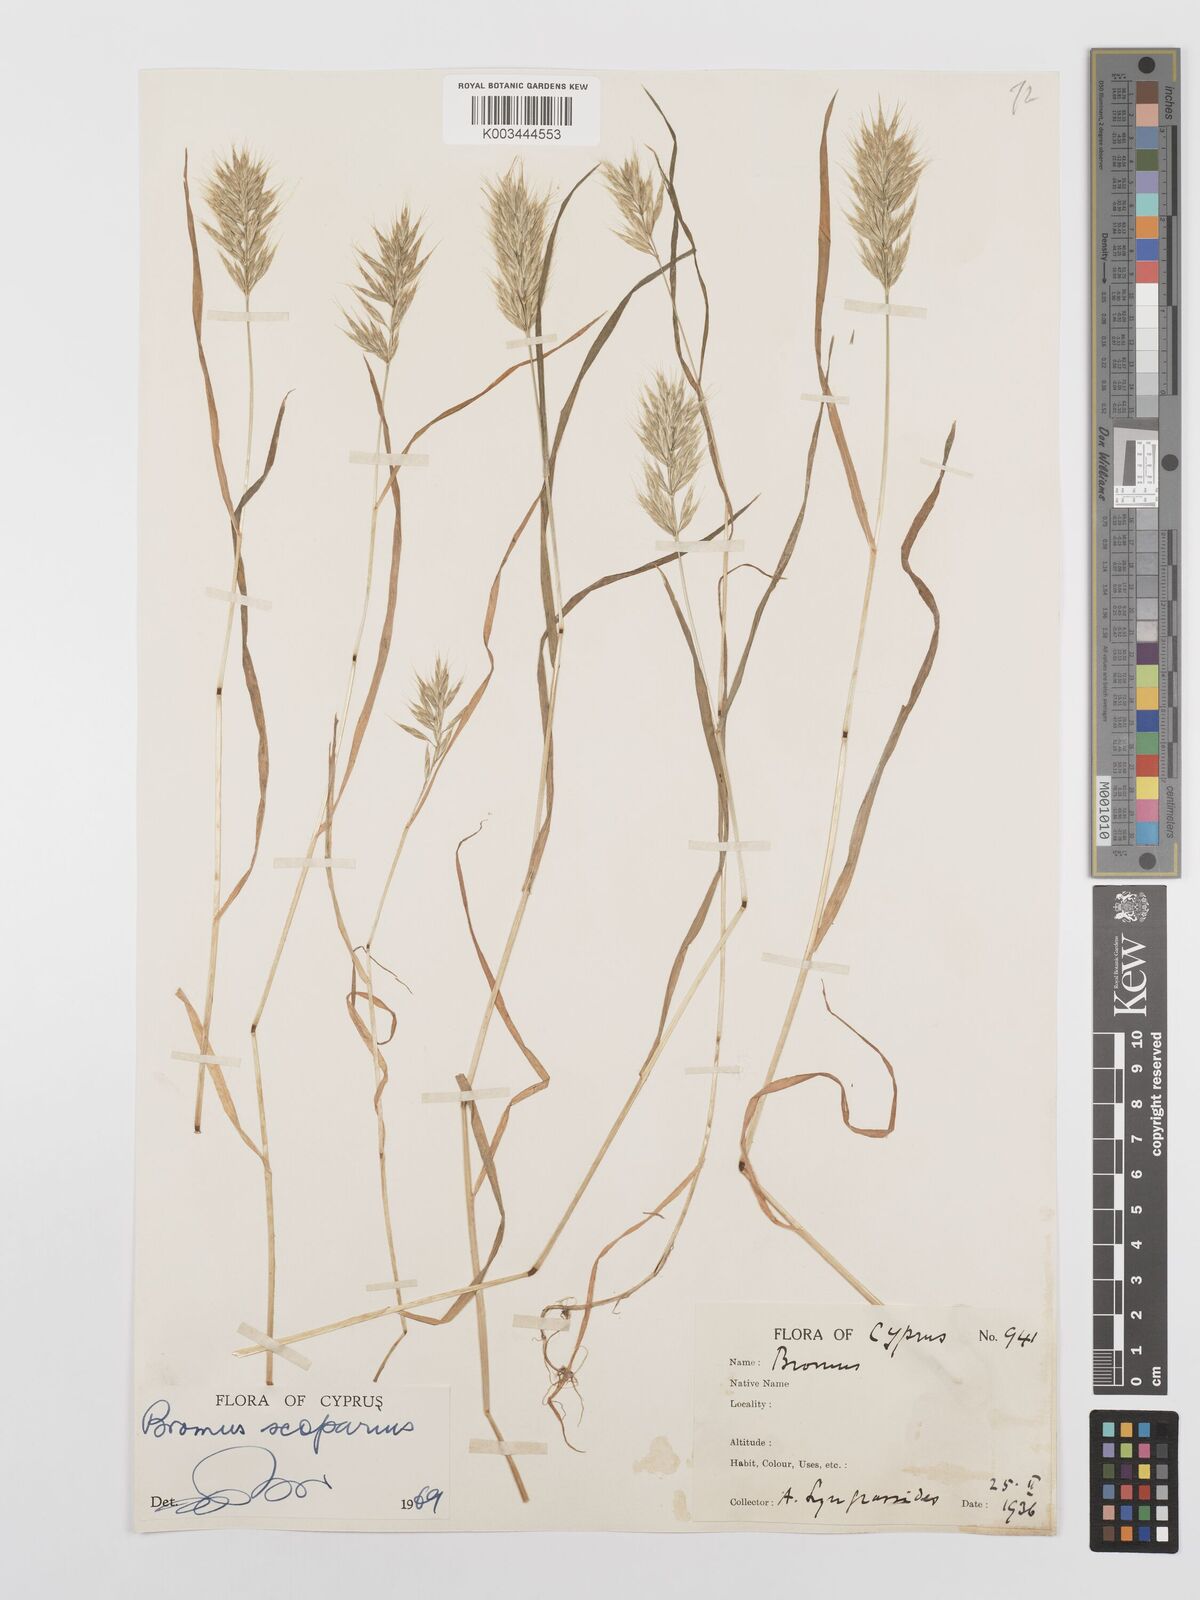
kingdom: Plantae
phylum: Tracheophyta
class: Liliopsida
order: Poales
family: Poaceae
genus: Bromus
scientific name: Bromus scoparius
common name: Broom brome
